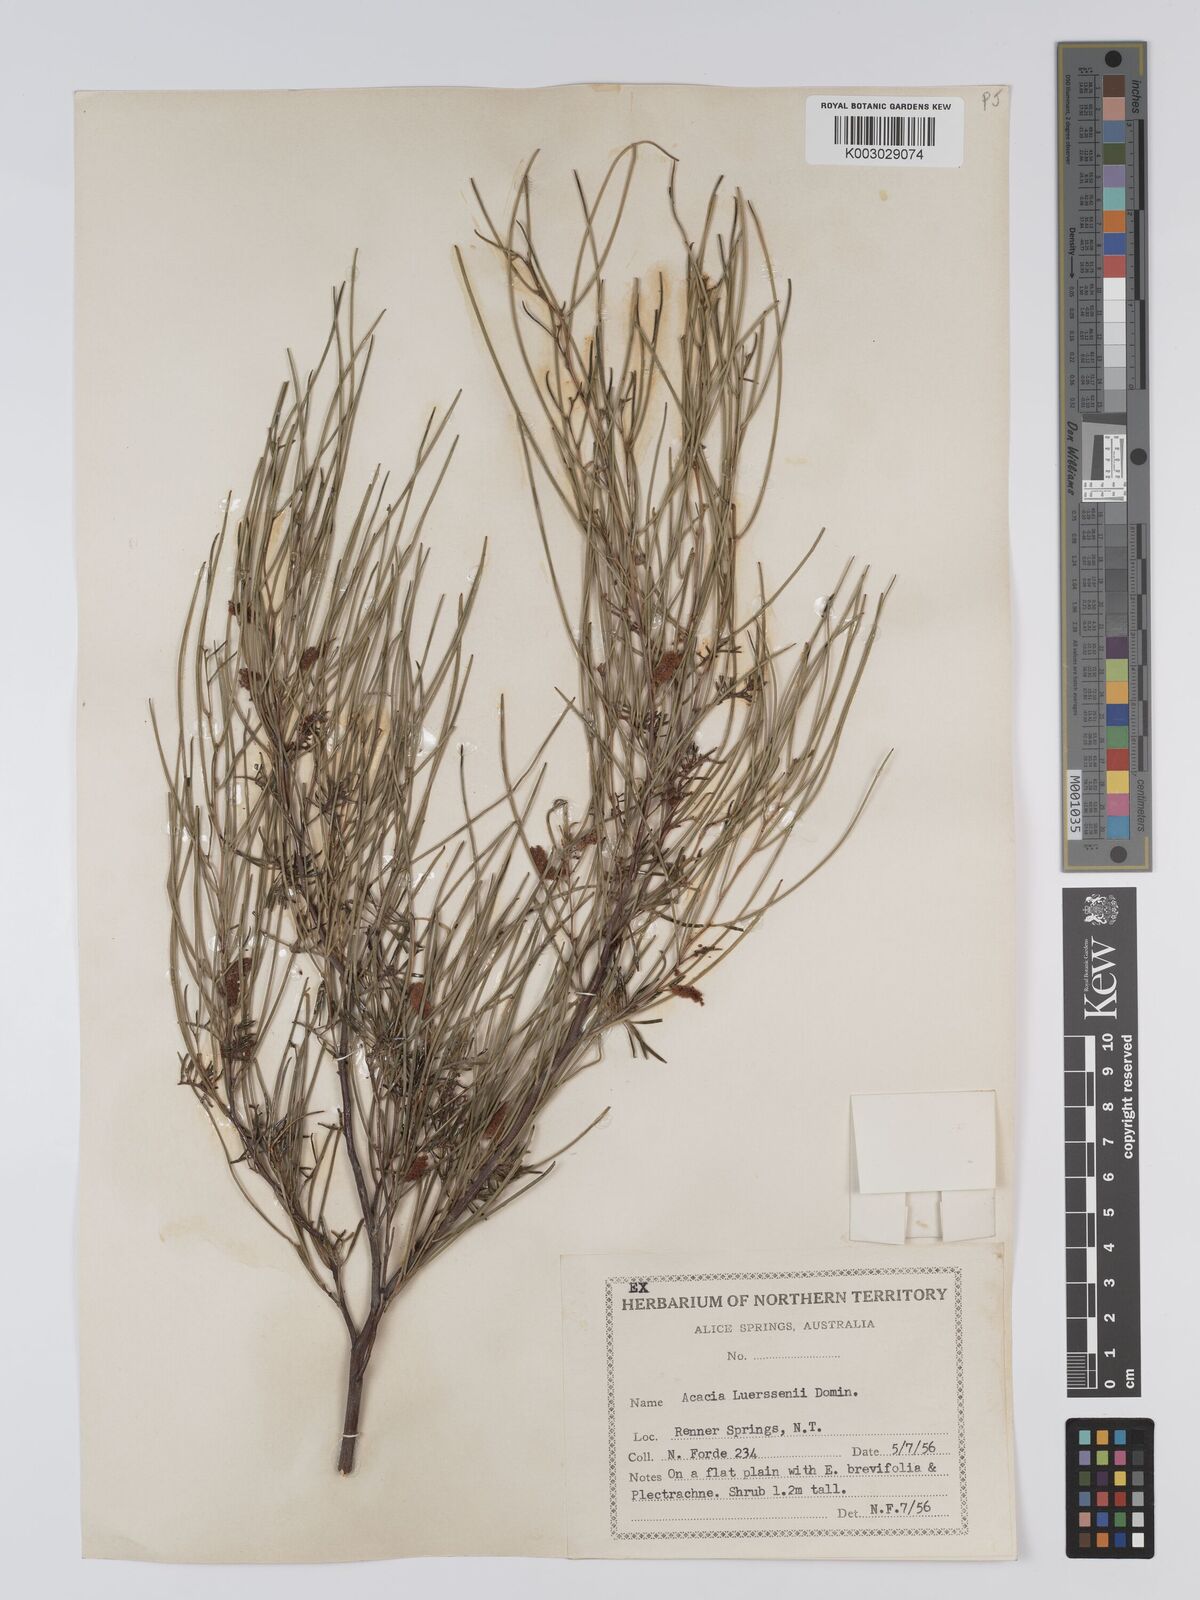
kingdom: Plantae
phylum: Tracheophyta
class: Magnoliopsida
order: Fabales
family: Fabaceae
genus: Acacia
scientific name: Acacia tenuissima
